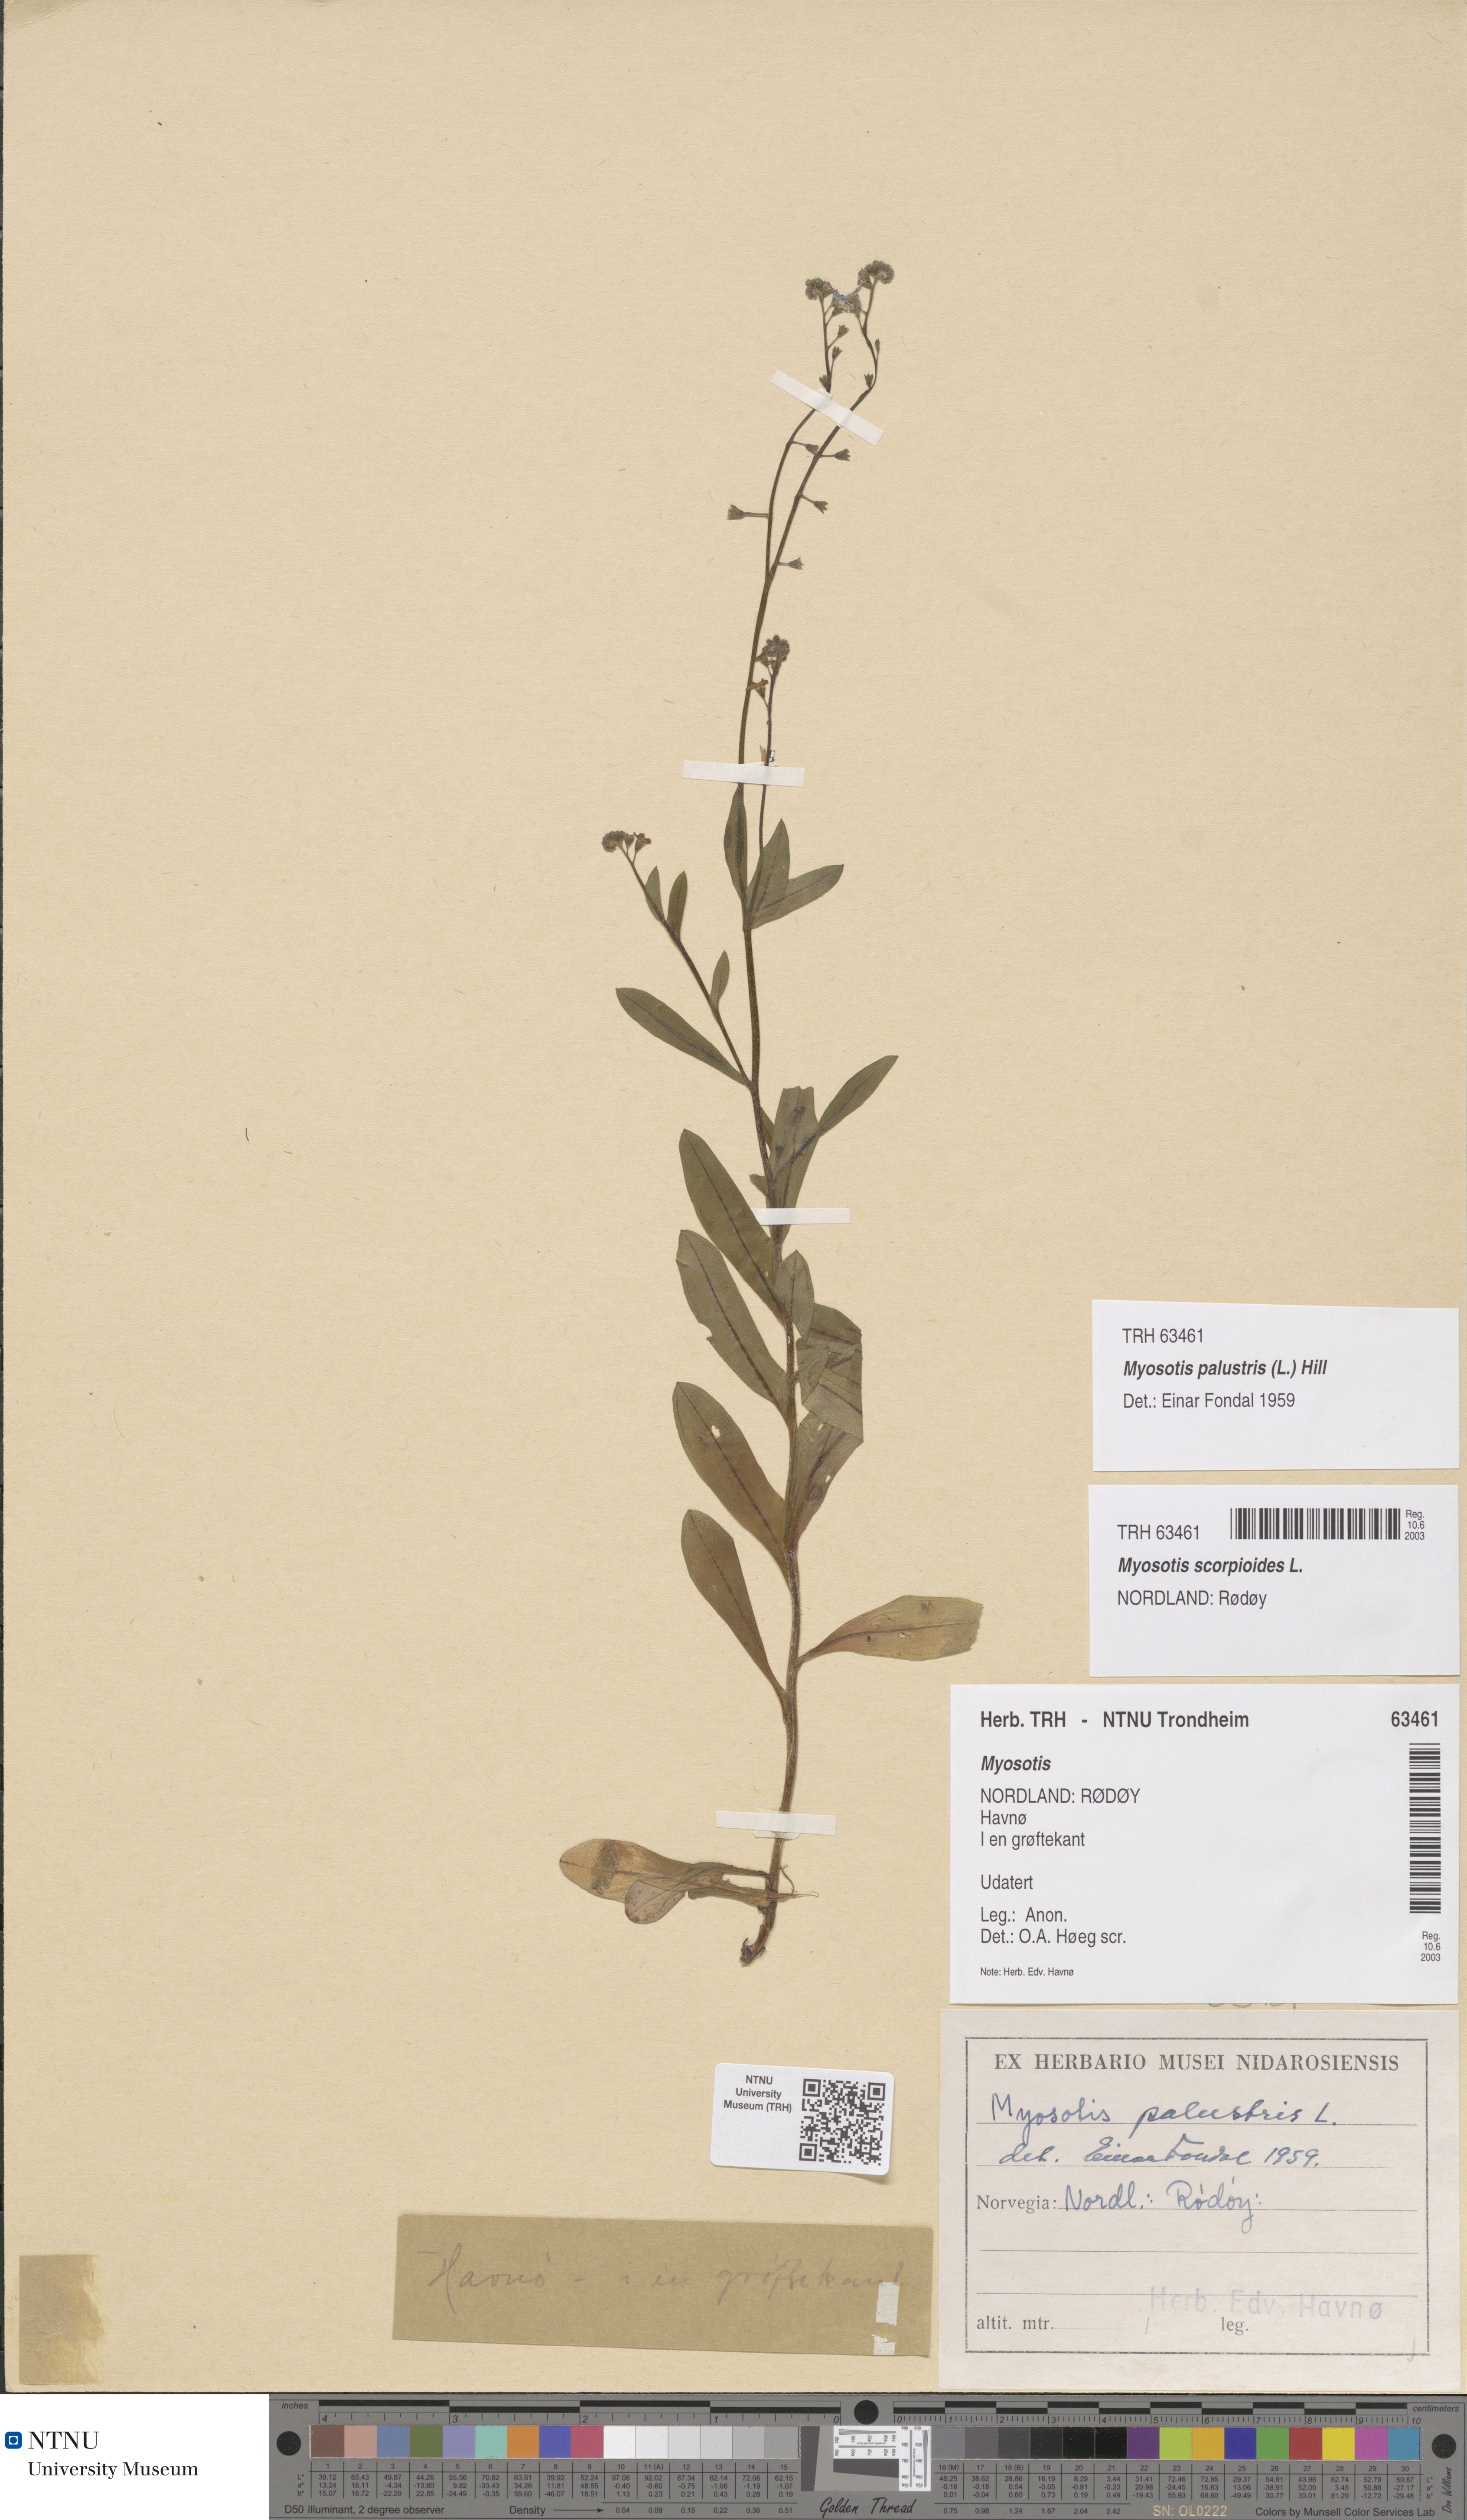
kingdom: Plantae
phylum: Tracheophyta
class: Magnoliopsida
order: Boraginales
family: Boraginaceae
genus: Myosotis
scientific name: Myosotis scorpioides
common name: Water forget-me-not
